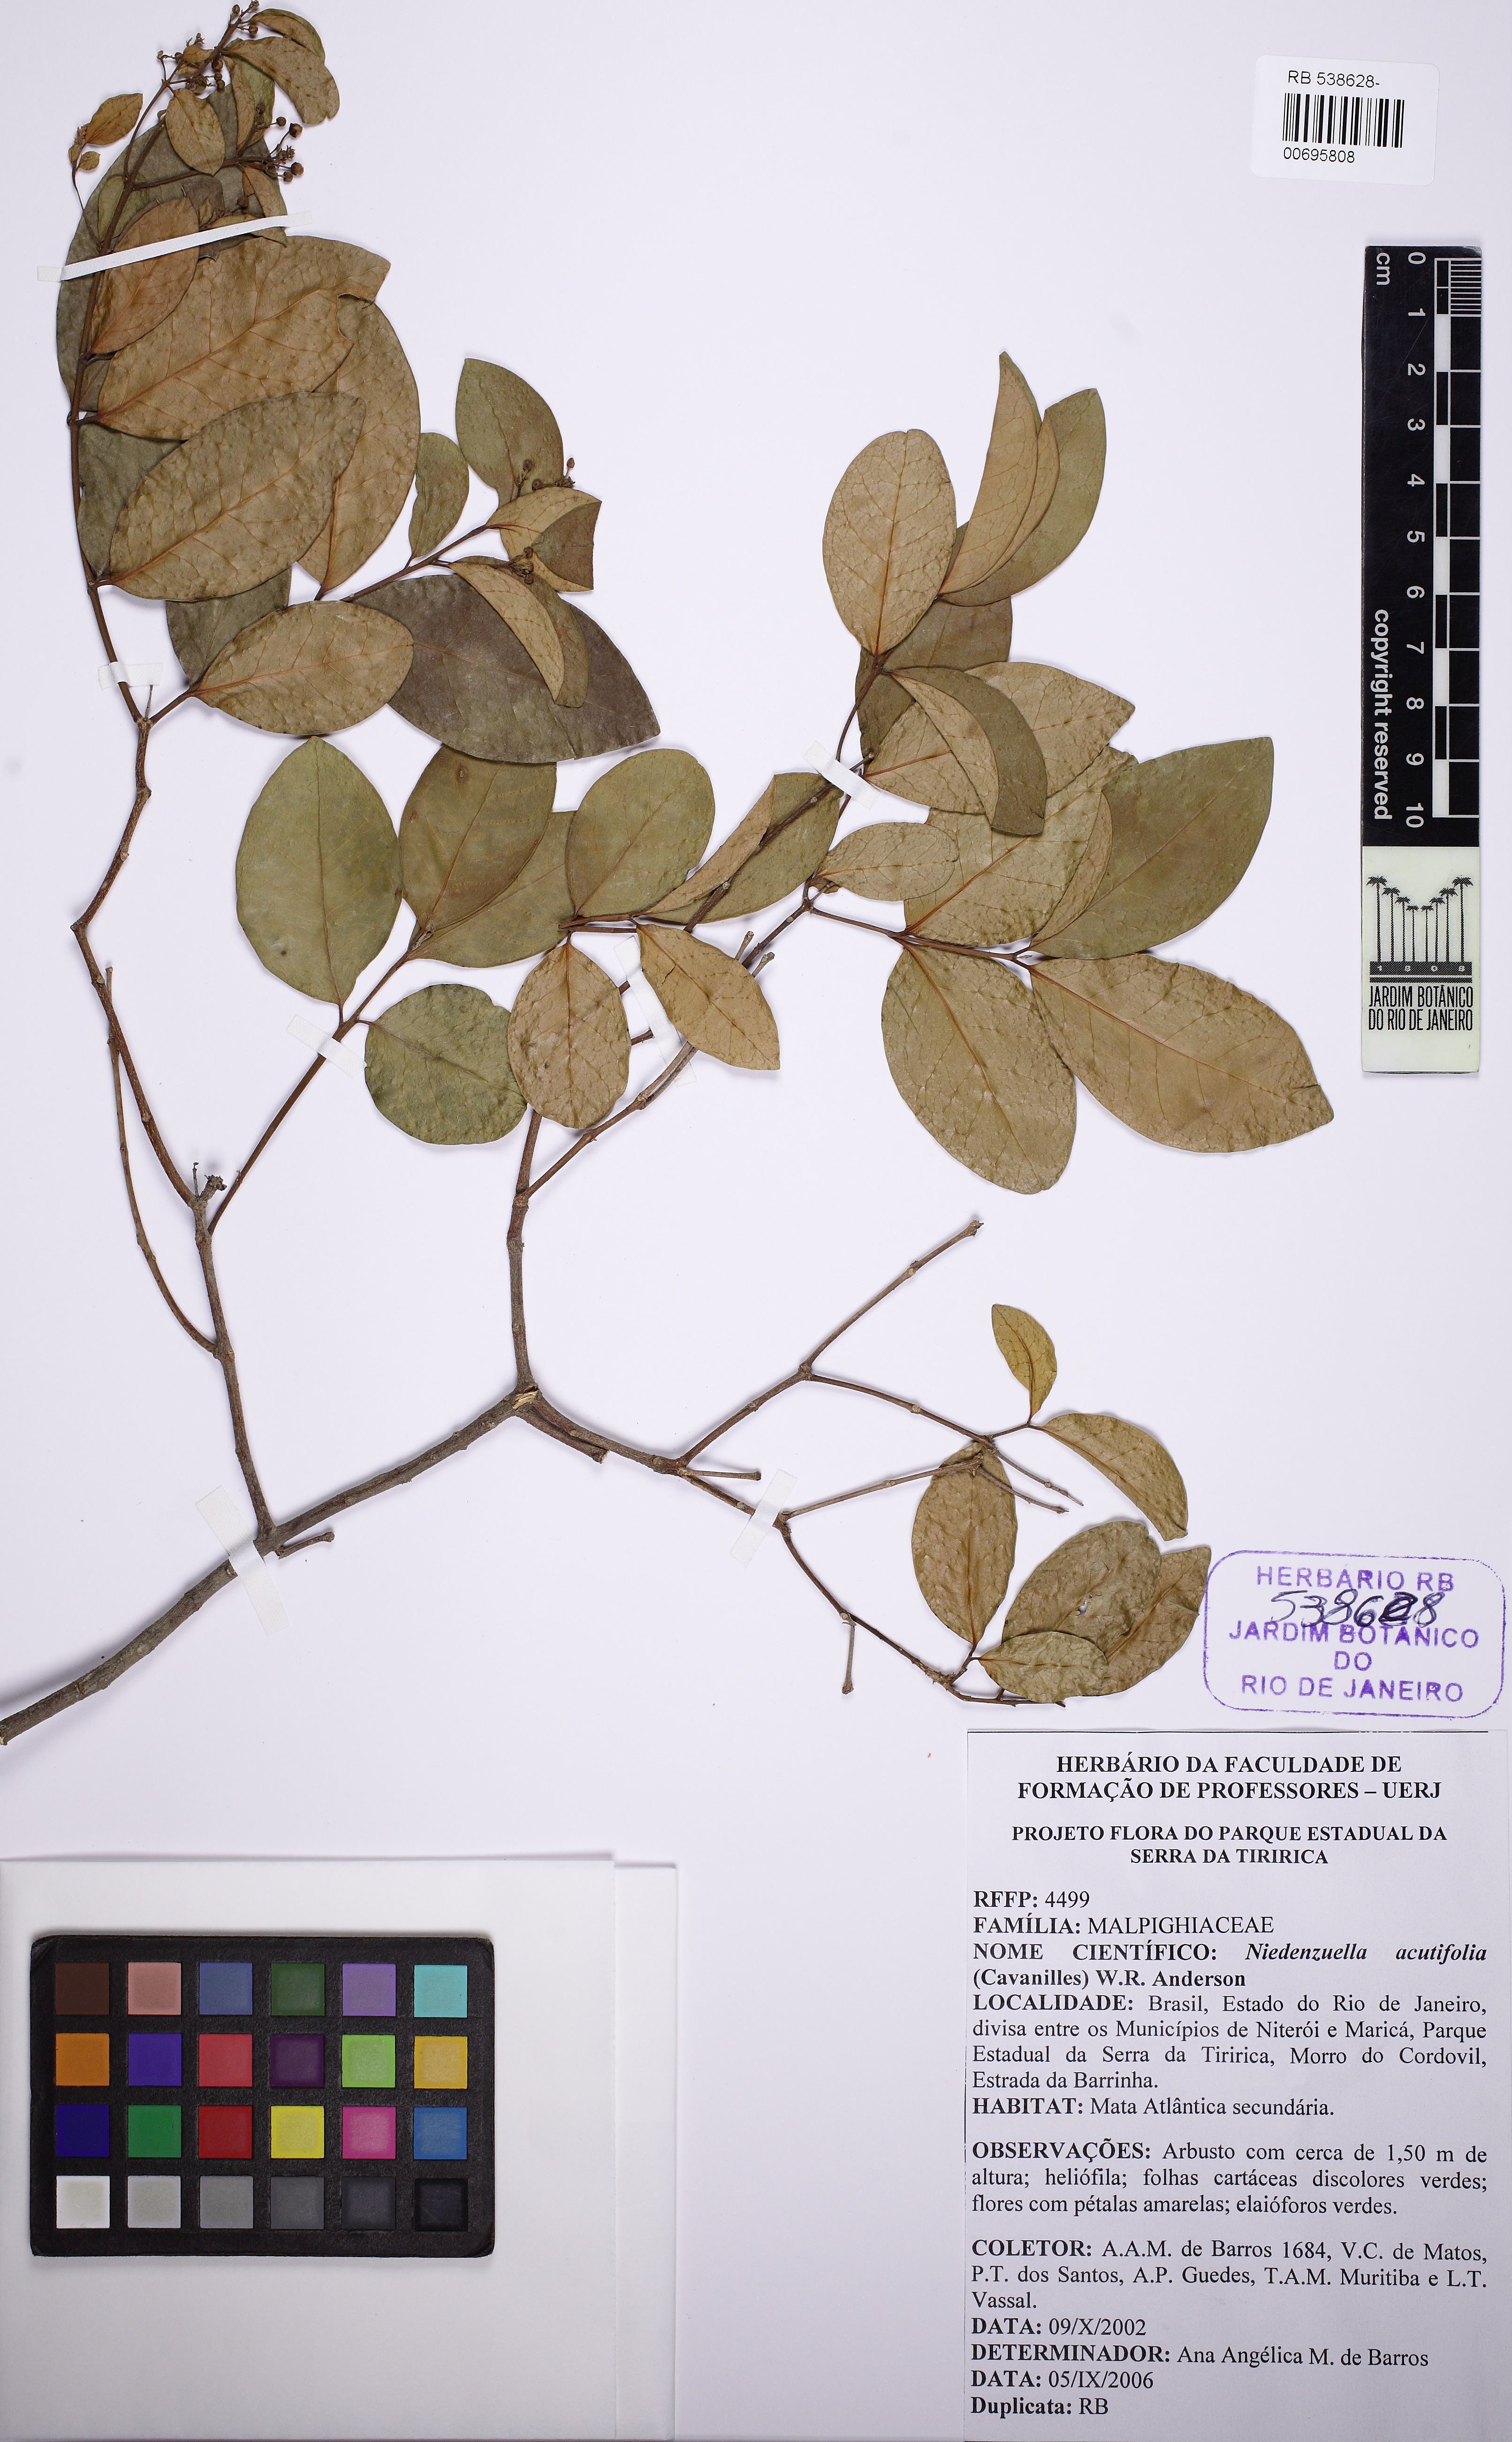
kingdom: Plantae
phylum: Tracheophyta
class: Magnoliopsida
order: Malpighiales
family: Malpighiaceae
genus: Niedenzuella
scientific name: Niedenzuella acutifolia
